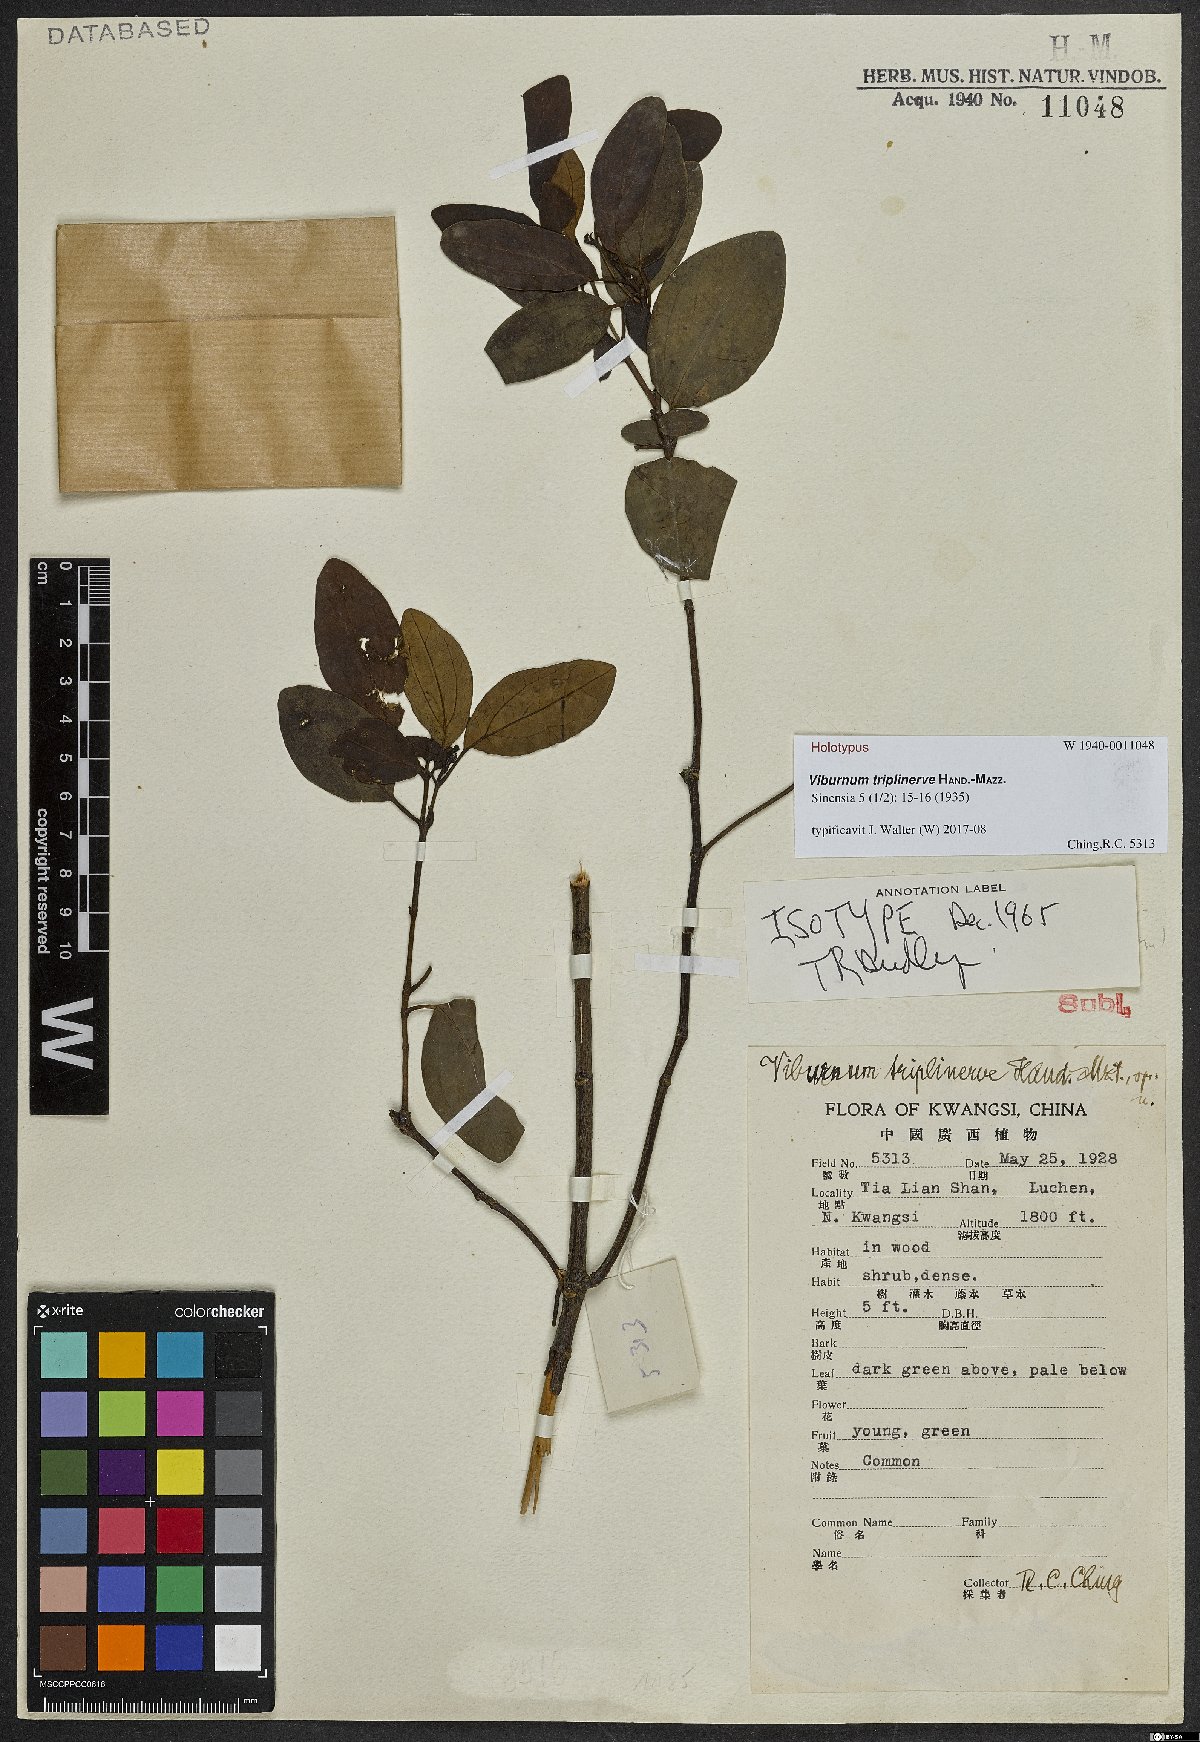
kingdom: Plantae
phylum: Tracheophyta
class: Magnoliopsida
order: Dipsacales
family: Viburnaceae
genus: Viburnum
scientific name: Viburnum triplinerve
